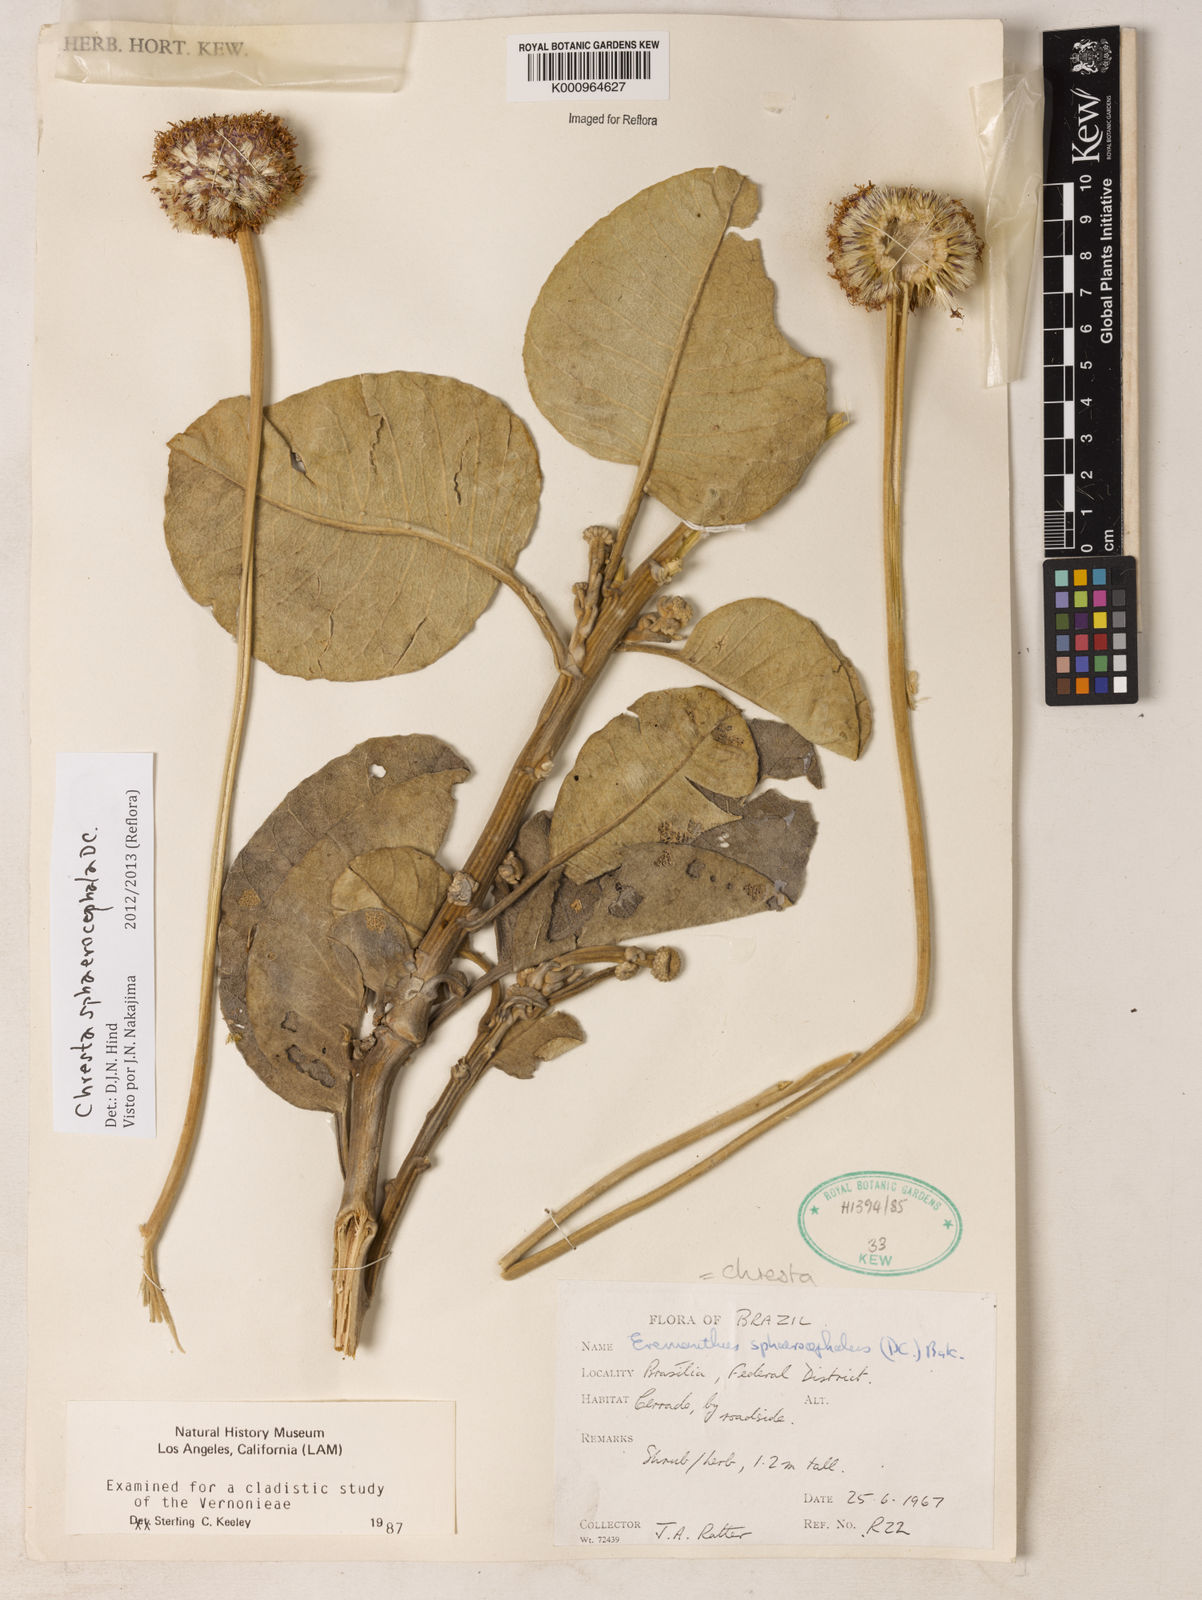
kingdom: Plantae
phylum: Tracheophyta
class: Magnoliopsida
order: Asterales
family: Asteraceae
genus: Chresta
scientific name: Chresta sphaerocephala
